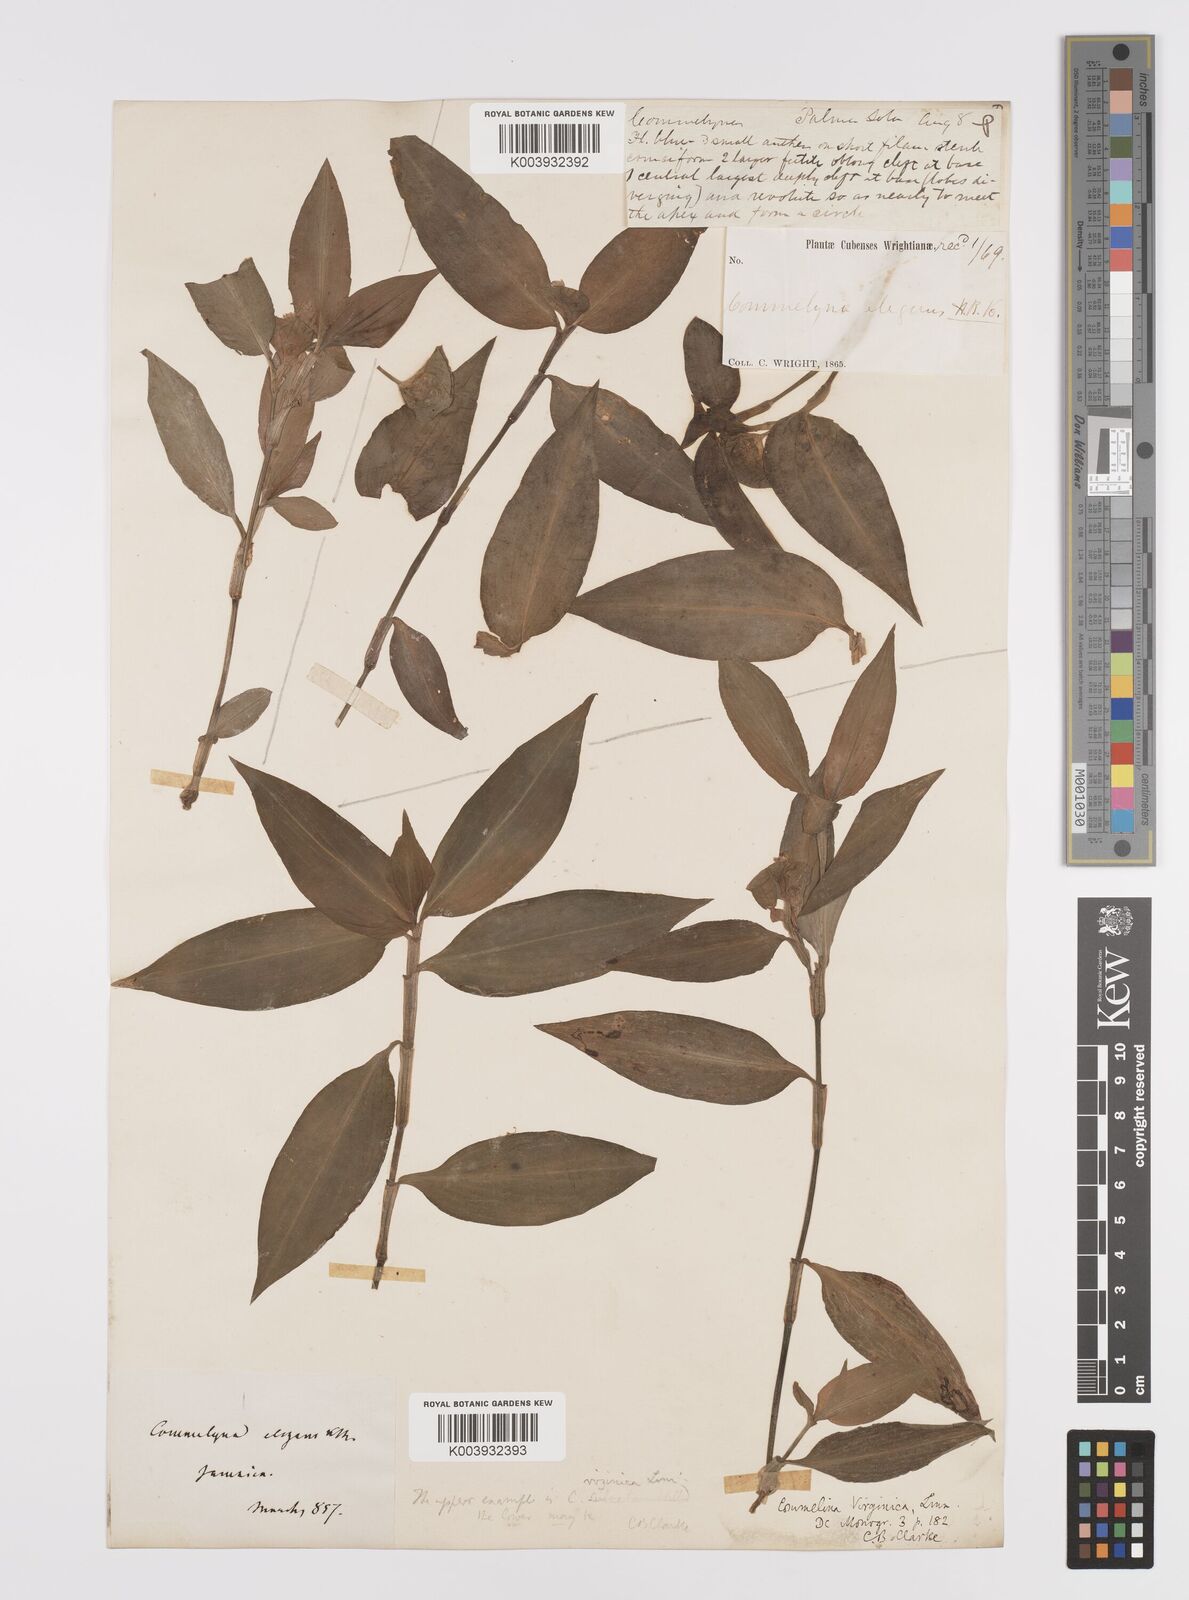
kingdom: Plantae
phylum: Tracheophyta
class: Liliopsida
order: Commelinales
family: Commelinaceae
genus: Commelina
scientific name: Commelina virginica
